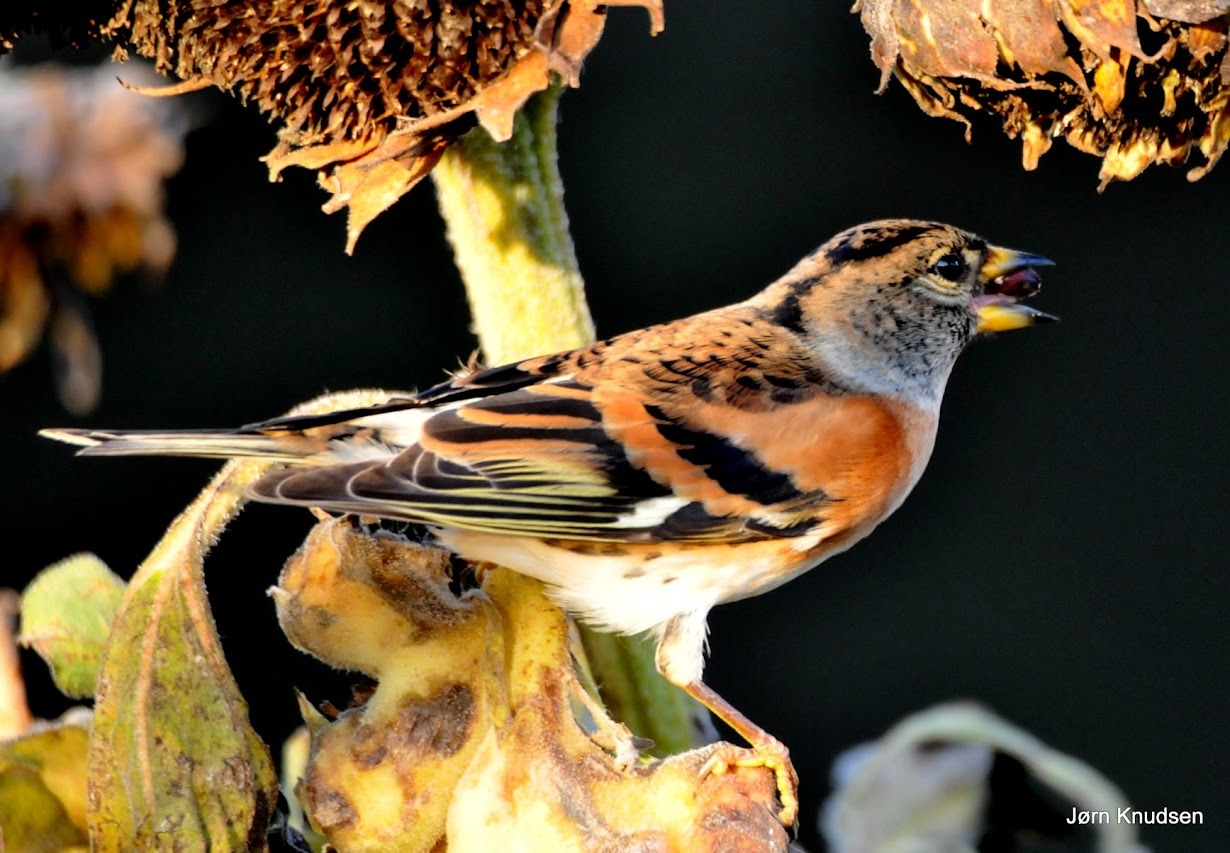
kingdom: Animalia
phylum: Chordata
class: Aves
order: Passeriformes
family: Fringillidae
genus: Fringilla
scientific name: Fringilla montifringilla
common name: Kvækerfinke
